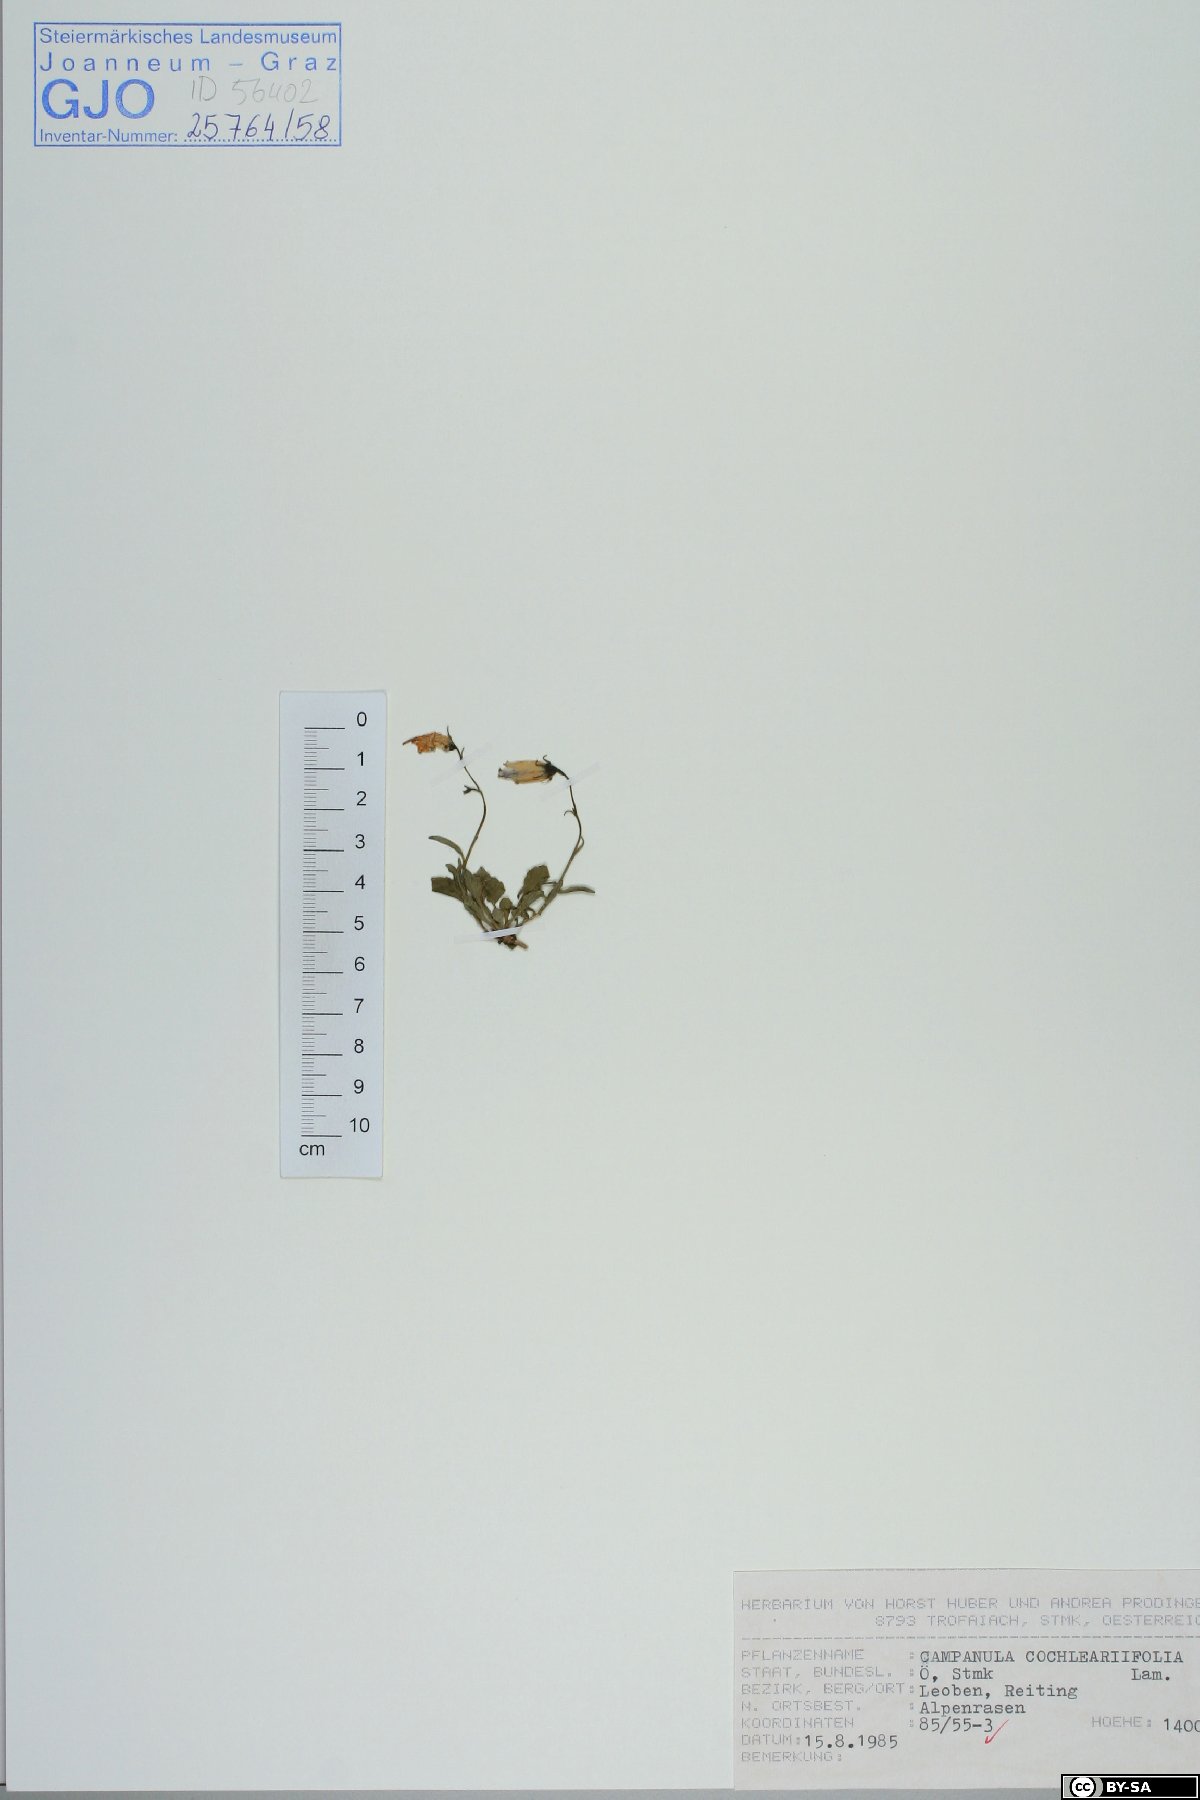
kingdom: Plantae
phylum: Tracheophyta
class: Magnoliopsida
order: Asterales
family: Campanulaceae
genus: Campanula
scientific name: Campanula cochleariifolia
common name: Fairies'-thimbles
